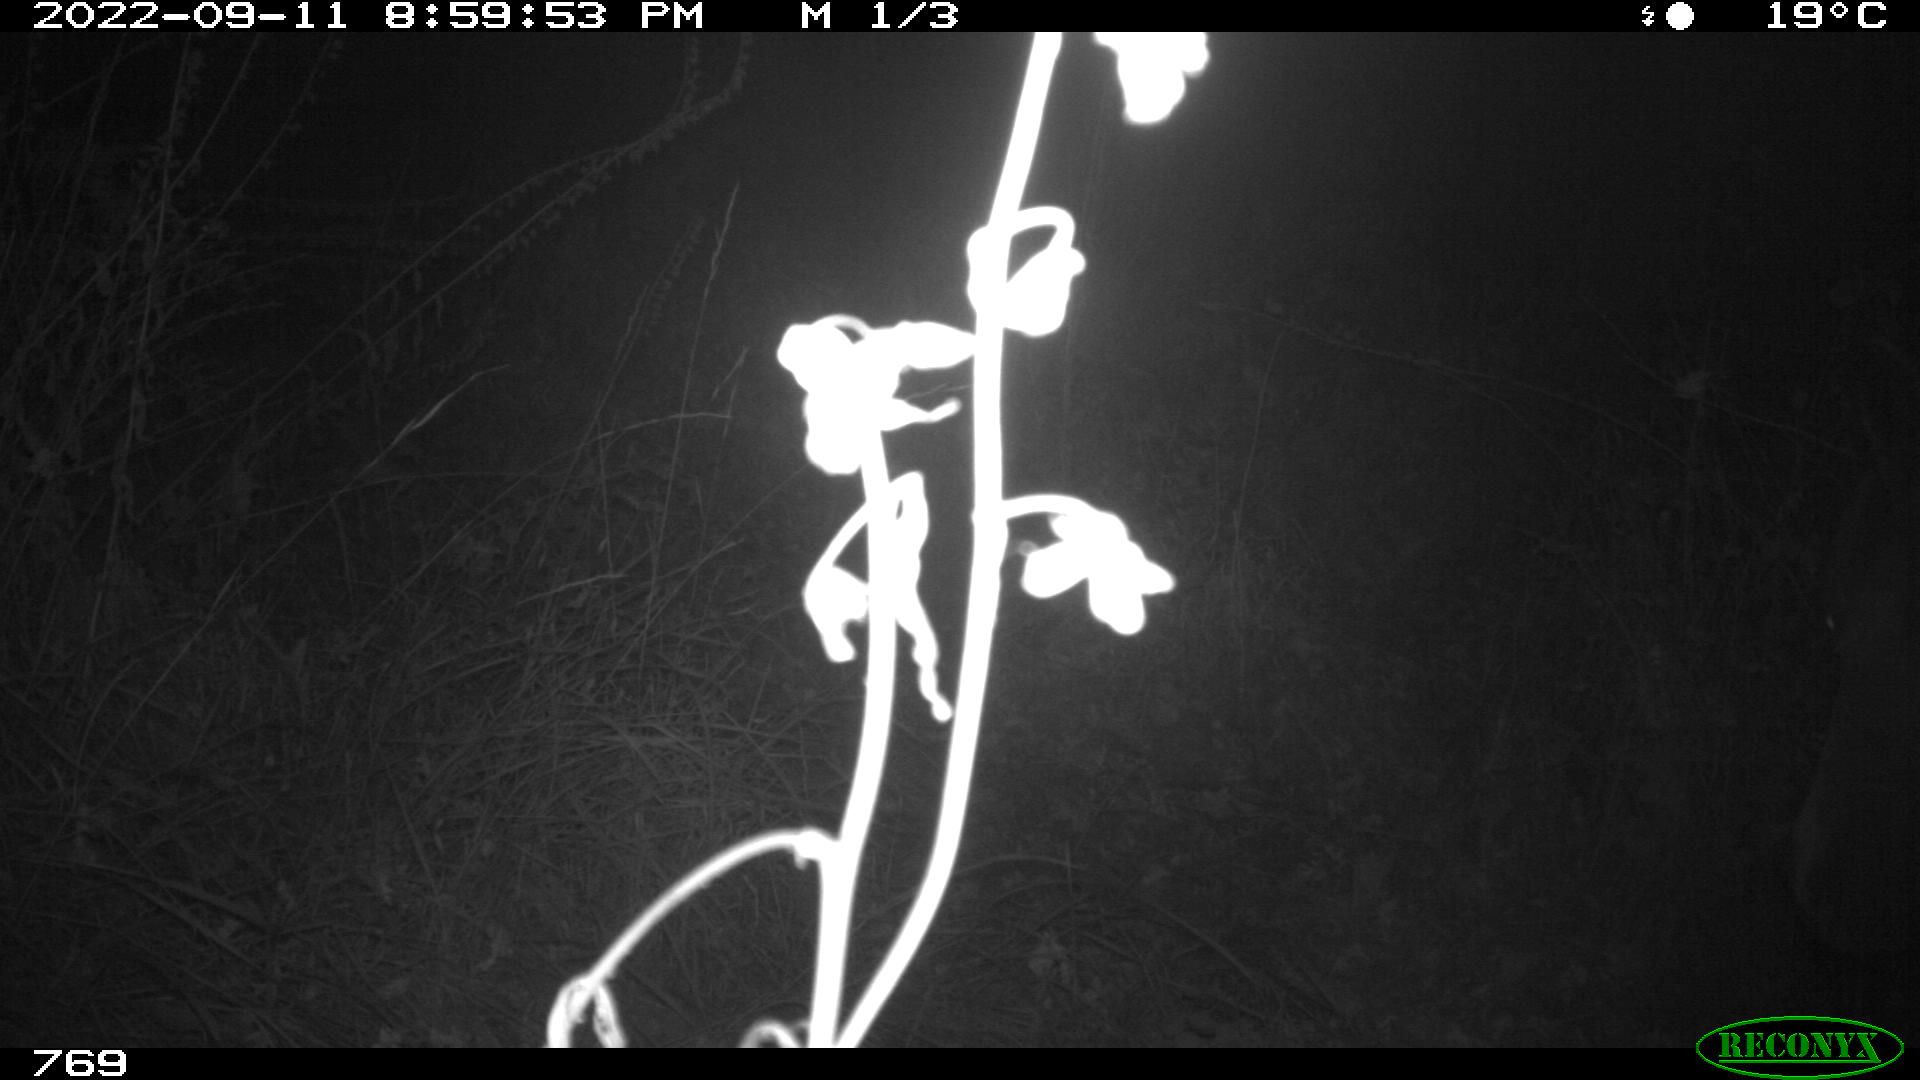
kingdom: Animalia
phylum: Chordata
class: Mammalia
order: Perissodactyla
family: Equidae
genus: Equus
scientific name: Equus caballus
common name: Horse
